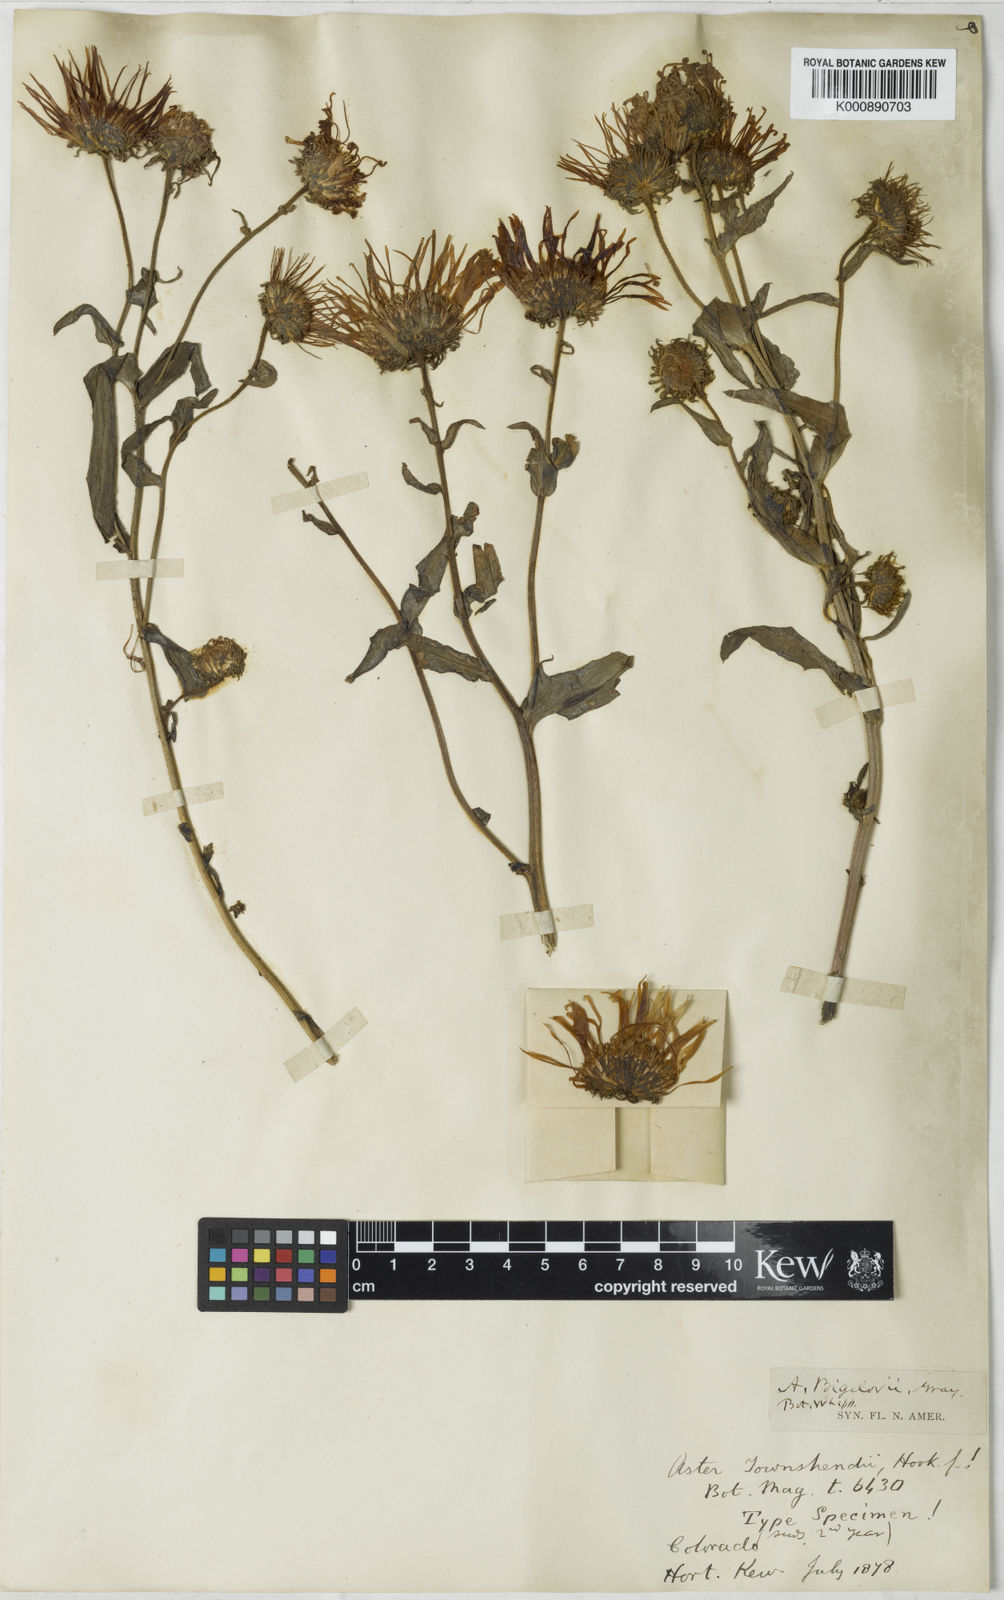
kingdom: Plantae
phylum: Tracheophyta
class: Magnoliopsida
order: Asterales
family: Asteraceae
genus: Dieteria
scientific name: Dieteria bigelovii
